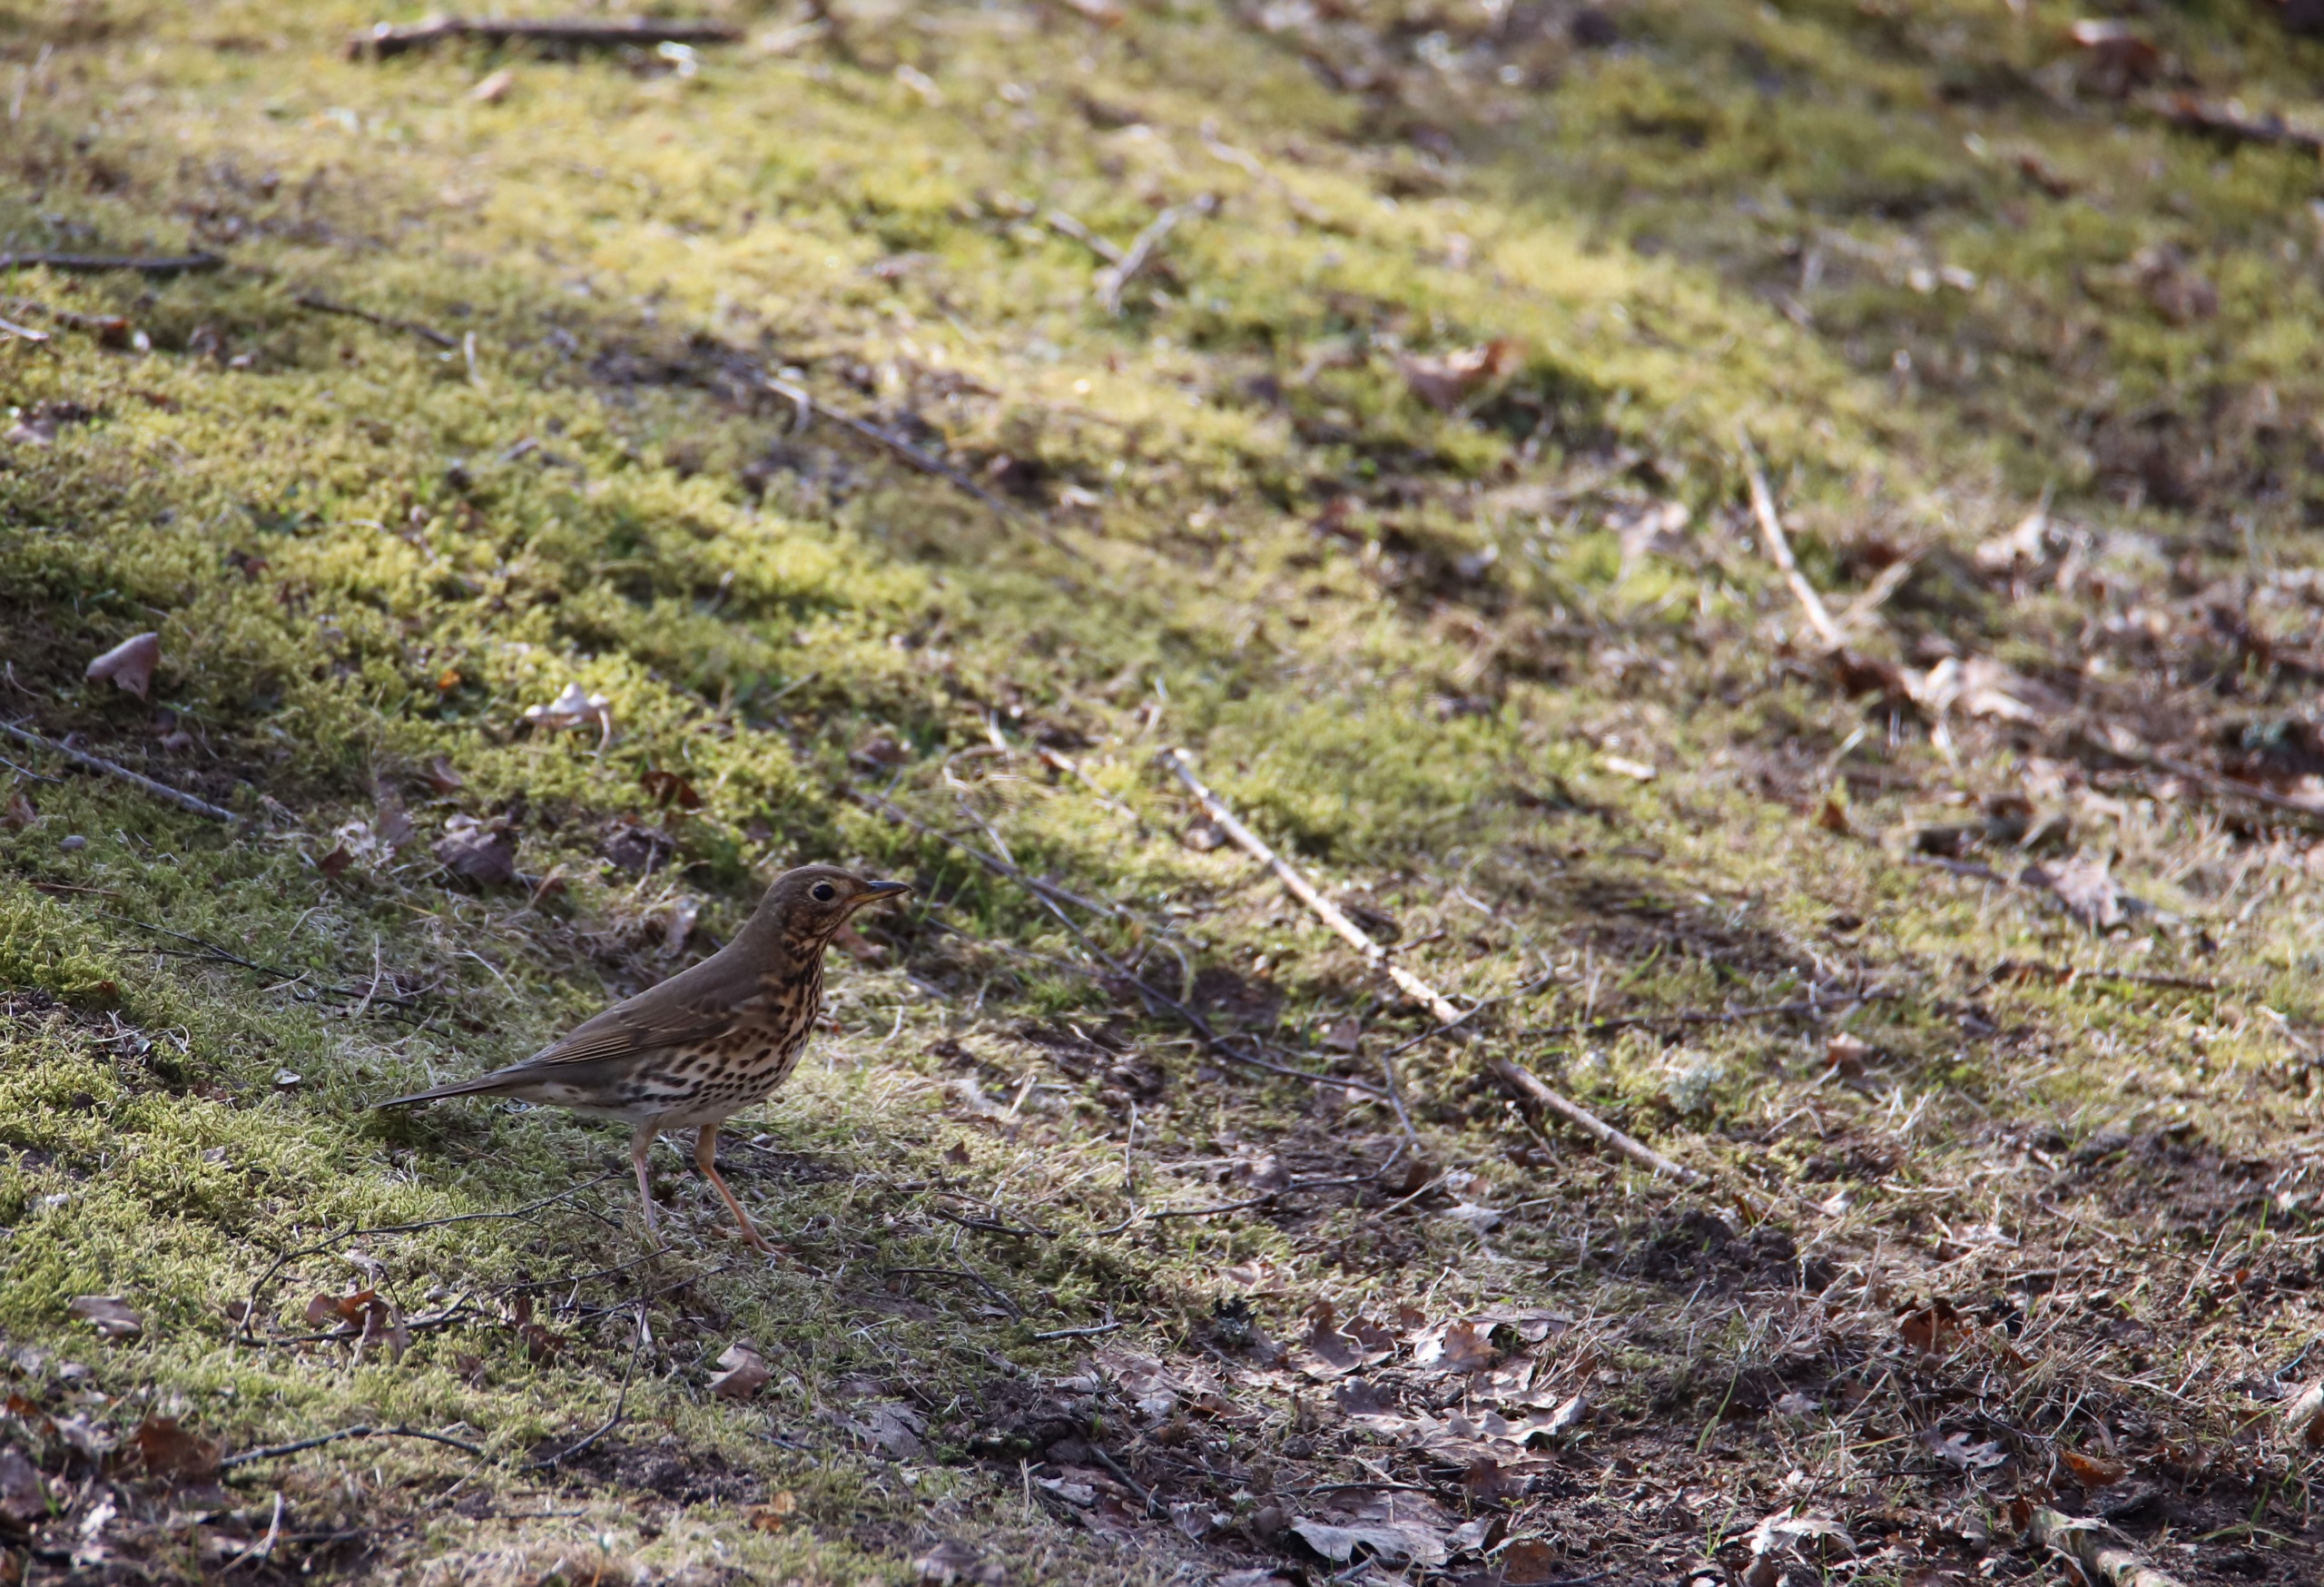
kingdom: Animalia
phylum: Chordata
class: Aves
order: Passeriformes
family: Turdidae
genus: Turdus
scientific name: Turdus philomelos
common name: Sangdrossel
